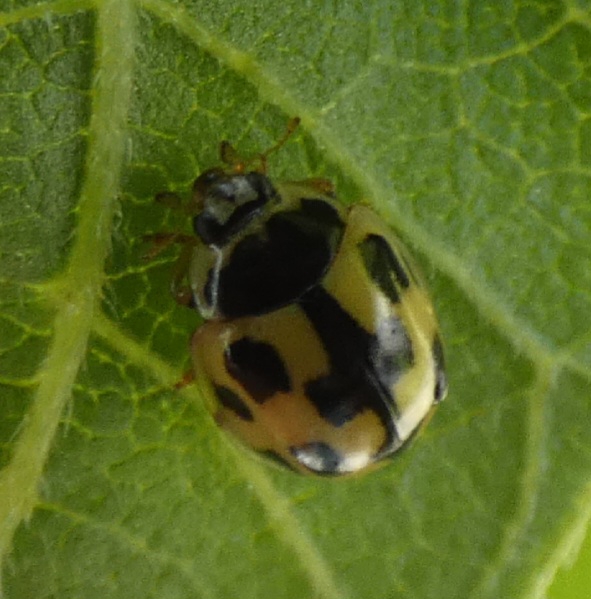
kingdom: Animalia
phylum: Arthropoda
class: Insecta
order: Coleoptera
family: Coccinellidae
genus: Propylaea
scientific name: Propylaea quatuordecimpunctata
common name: Skakbræt
